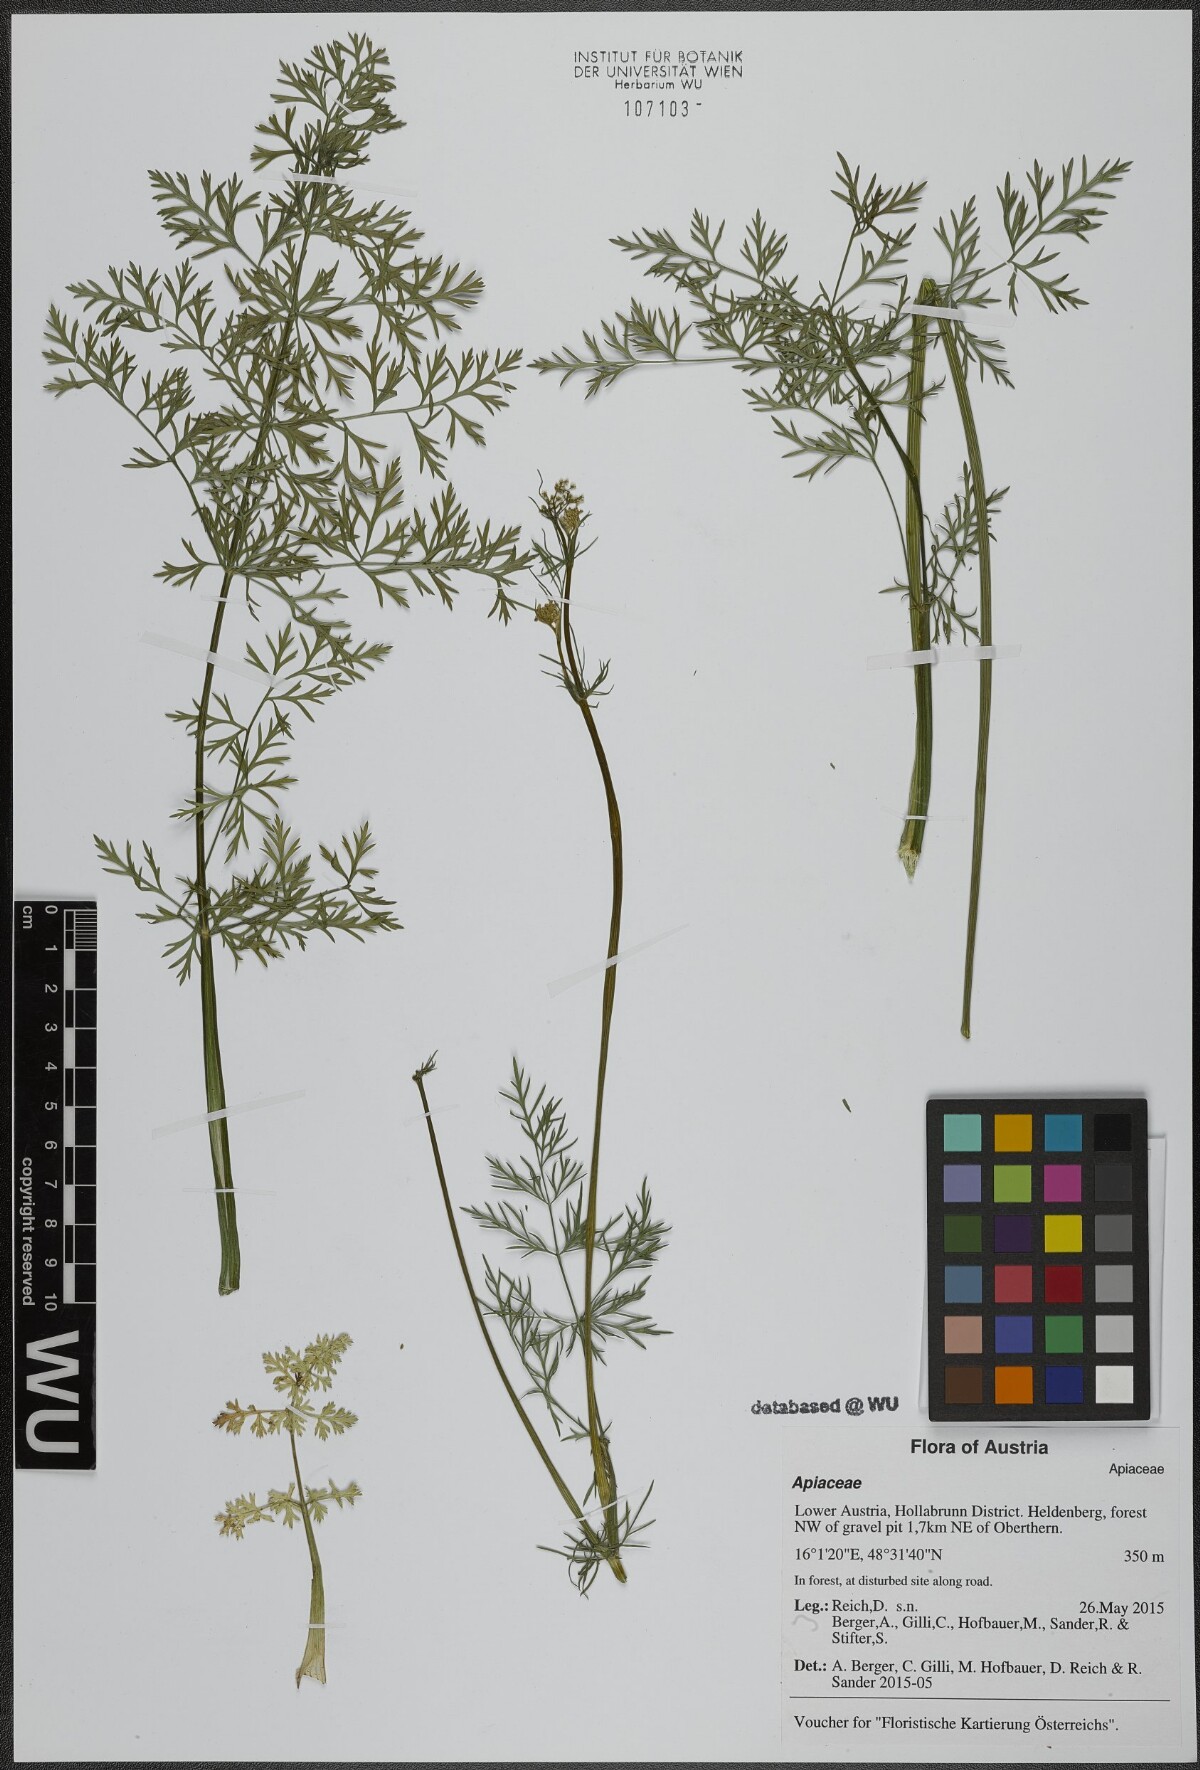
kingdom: Plantae
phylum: Tracheophyta
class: Magnoliopsida
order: Apiales
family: Apiaceae
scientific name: Apiaceae
